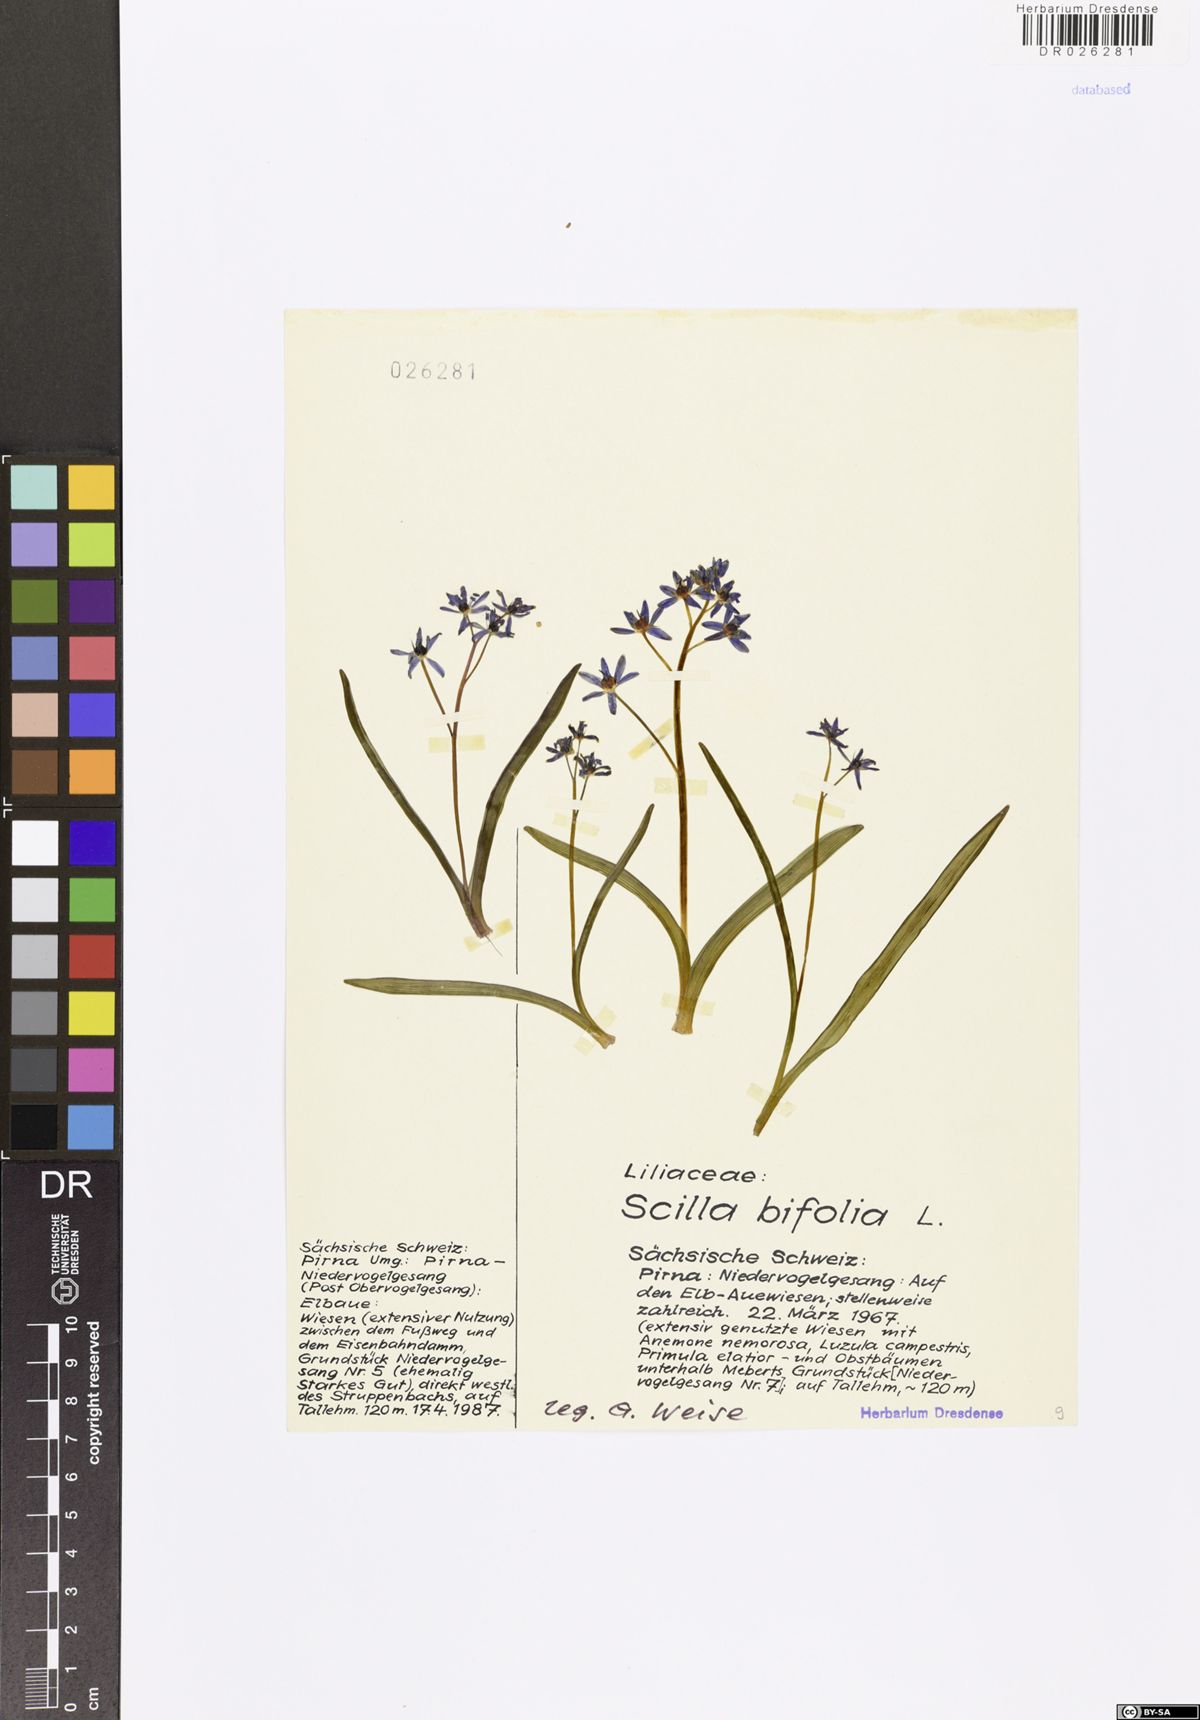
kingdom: Plantae
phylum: Tracheophyta
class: Liliopsida
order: Asparagales
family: Asparagaceae
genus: Scilla
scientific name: Scilla vindobonensis
